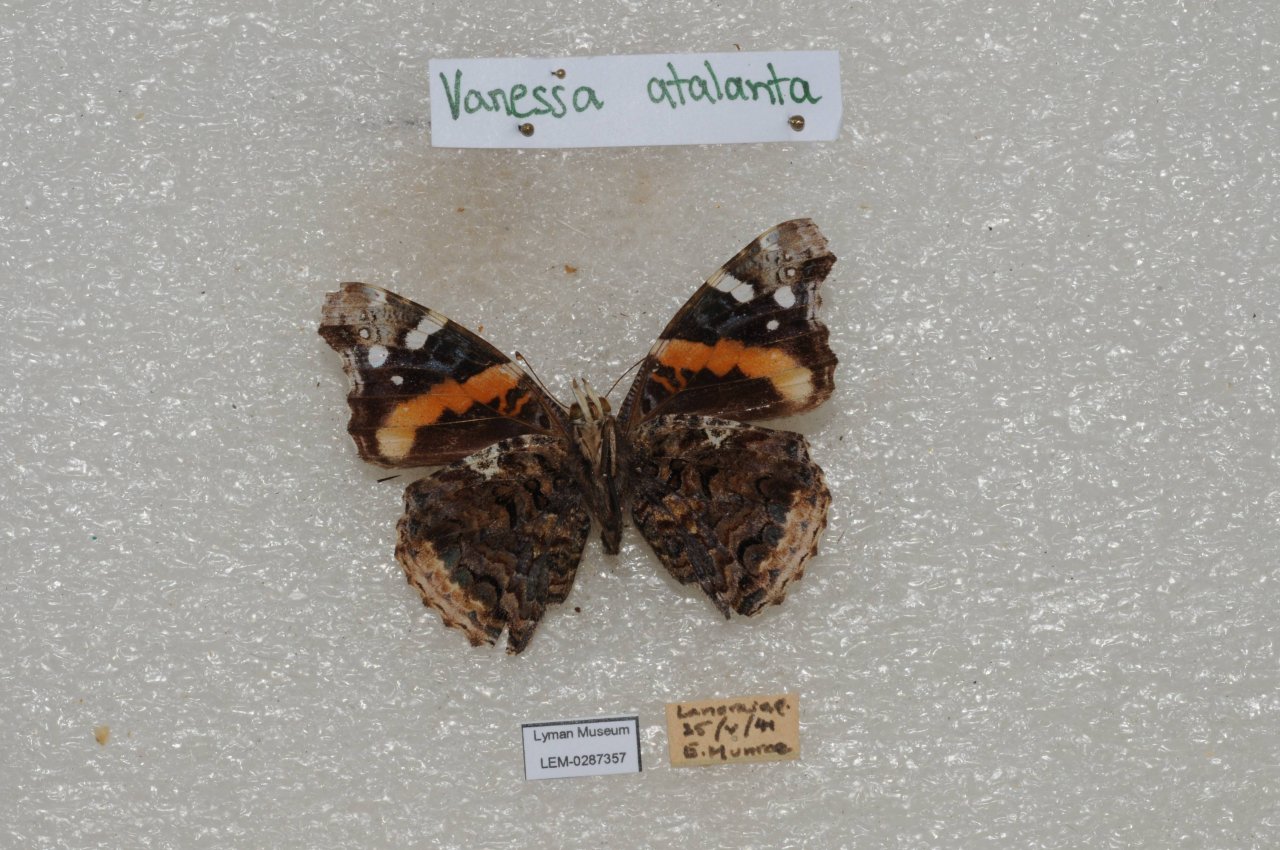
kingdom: Animalia
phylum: Arthropoda
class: Insecta
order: Lepidoptera
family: Nymphalidae
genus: Vanessa
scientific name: Vanessa atalanta
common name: Red Admiral
